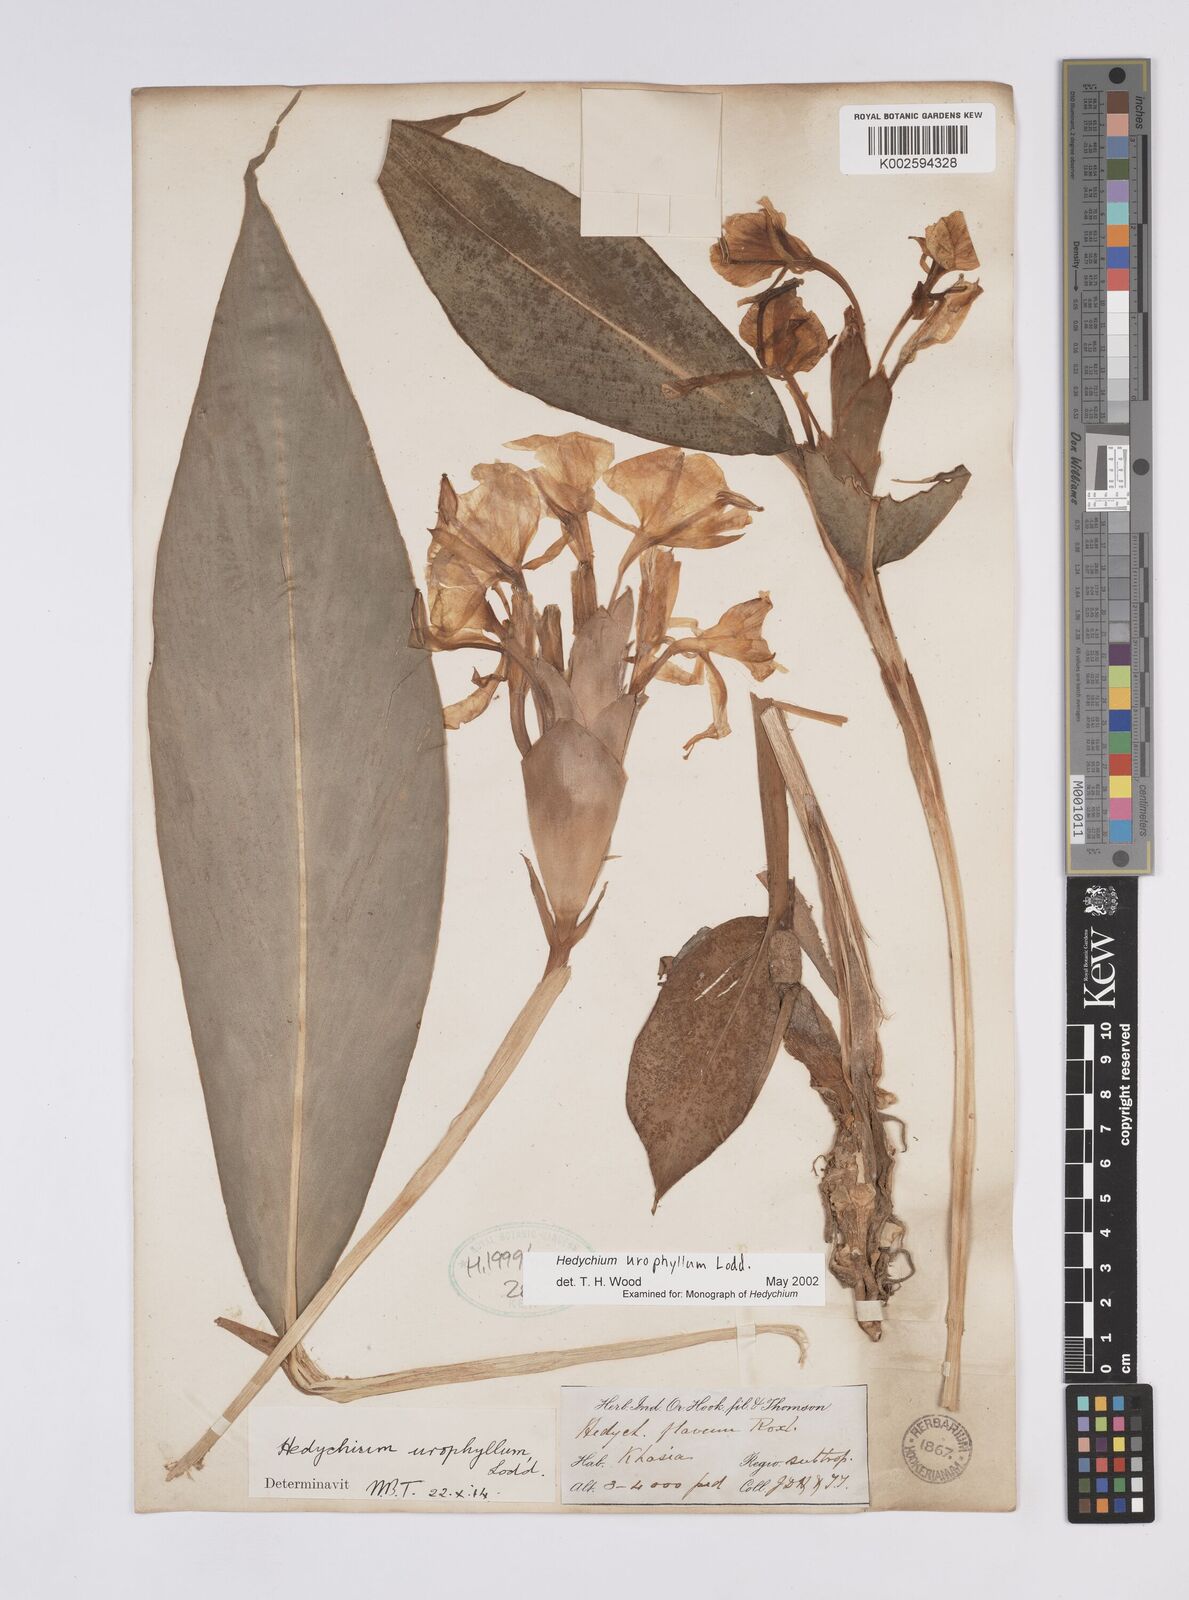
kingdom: Plantae
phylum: Tracheophyta
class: Liliopsida
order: Zingiberales
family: Zingiberaceae
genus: Hedychium
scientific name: Hedychium flavum
